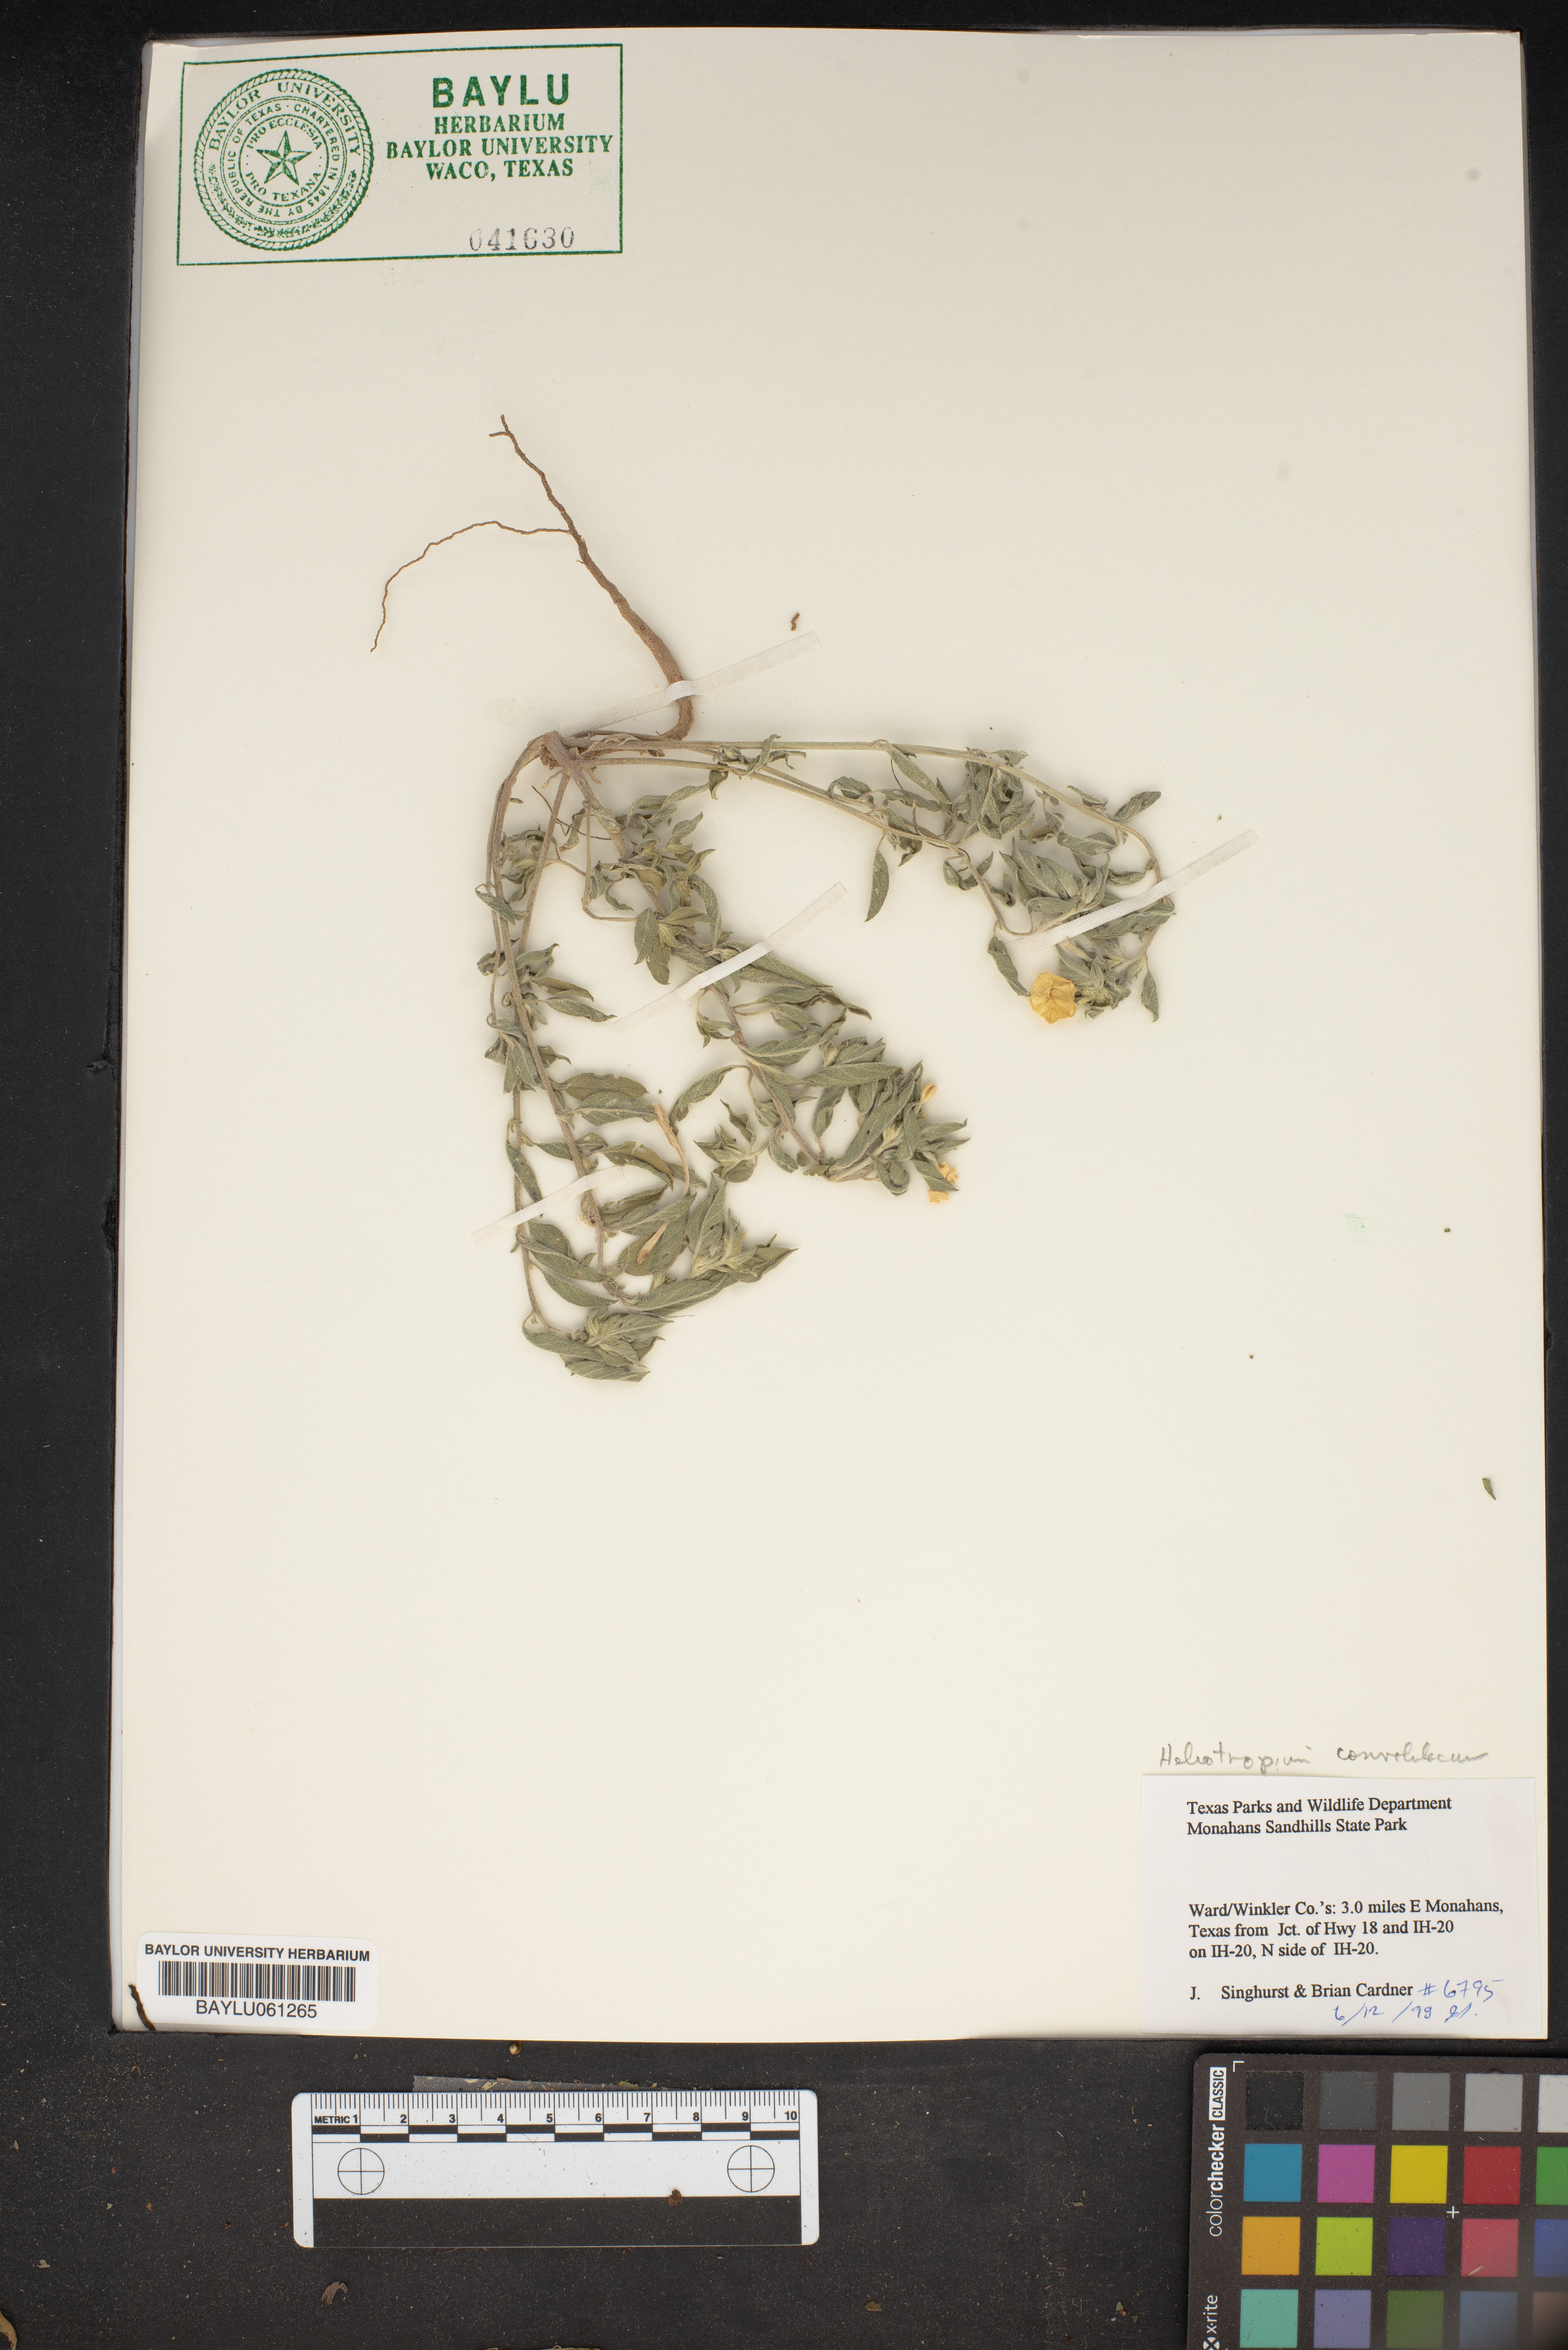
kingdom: Plantae
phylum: Tracheophyta
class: Magnoliopsida
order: Boraginales
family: Heliotropiaceae
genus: Euploca
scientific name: Euploca convolvulacea
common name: Bindweed heliotrope
